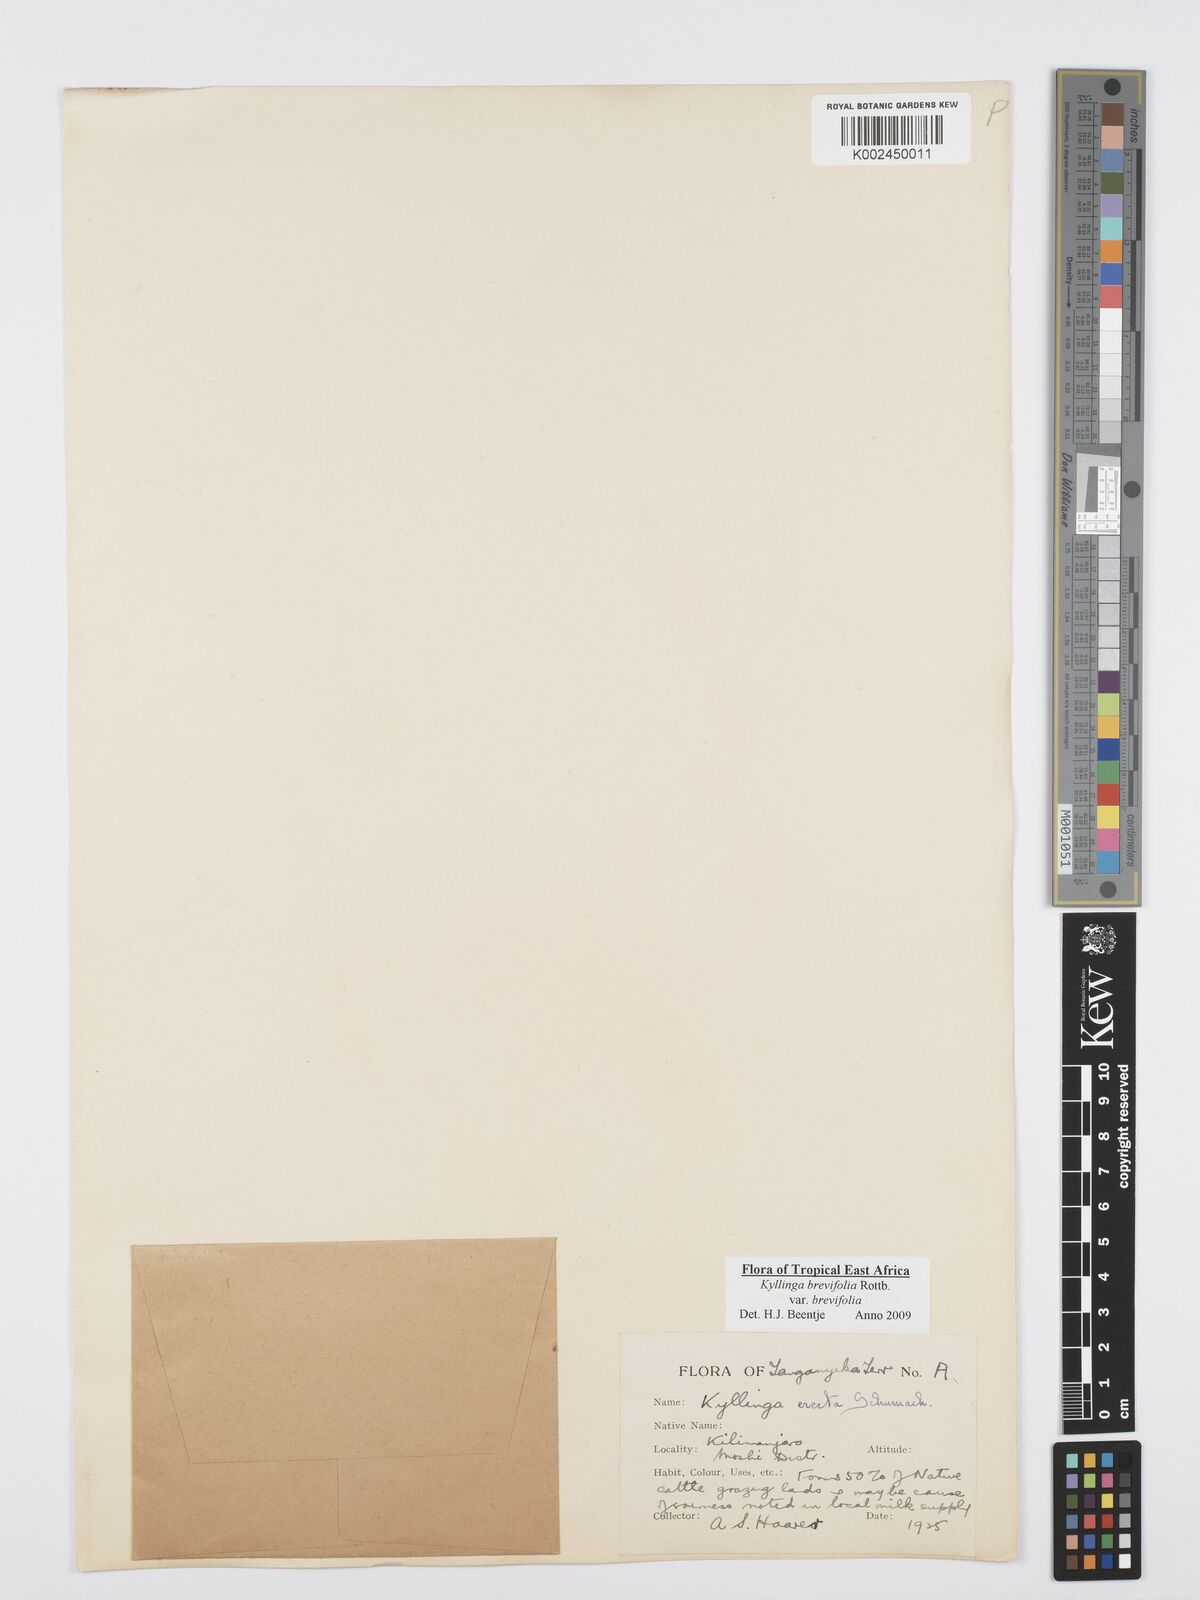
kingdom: Plantae
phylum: Tracheophyta
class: Liliopsida
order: Poales
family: Cyperaceae
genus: Cyperus
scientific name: Cyperus brevifolius
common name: Globe kyllinga
